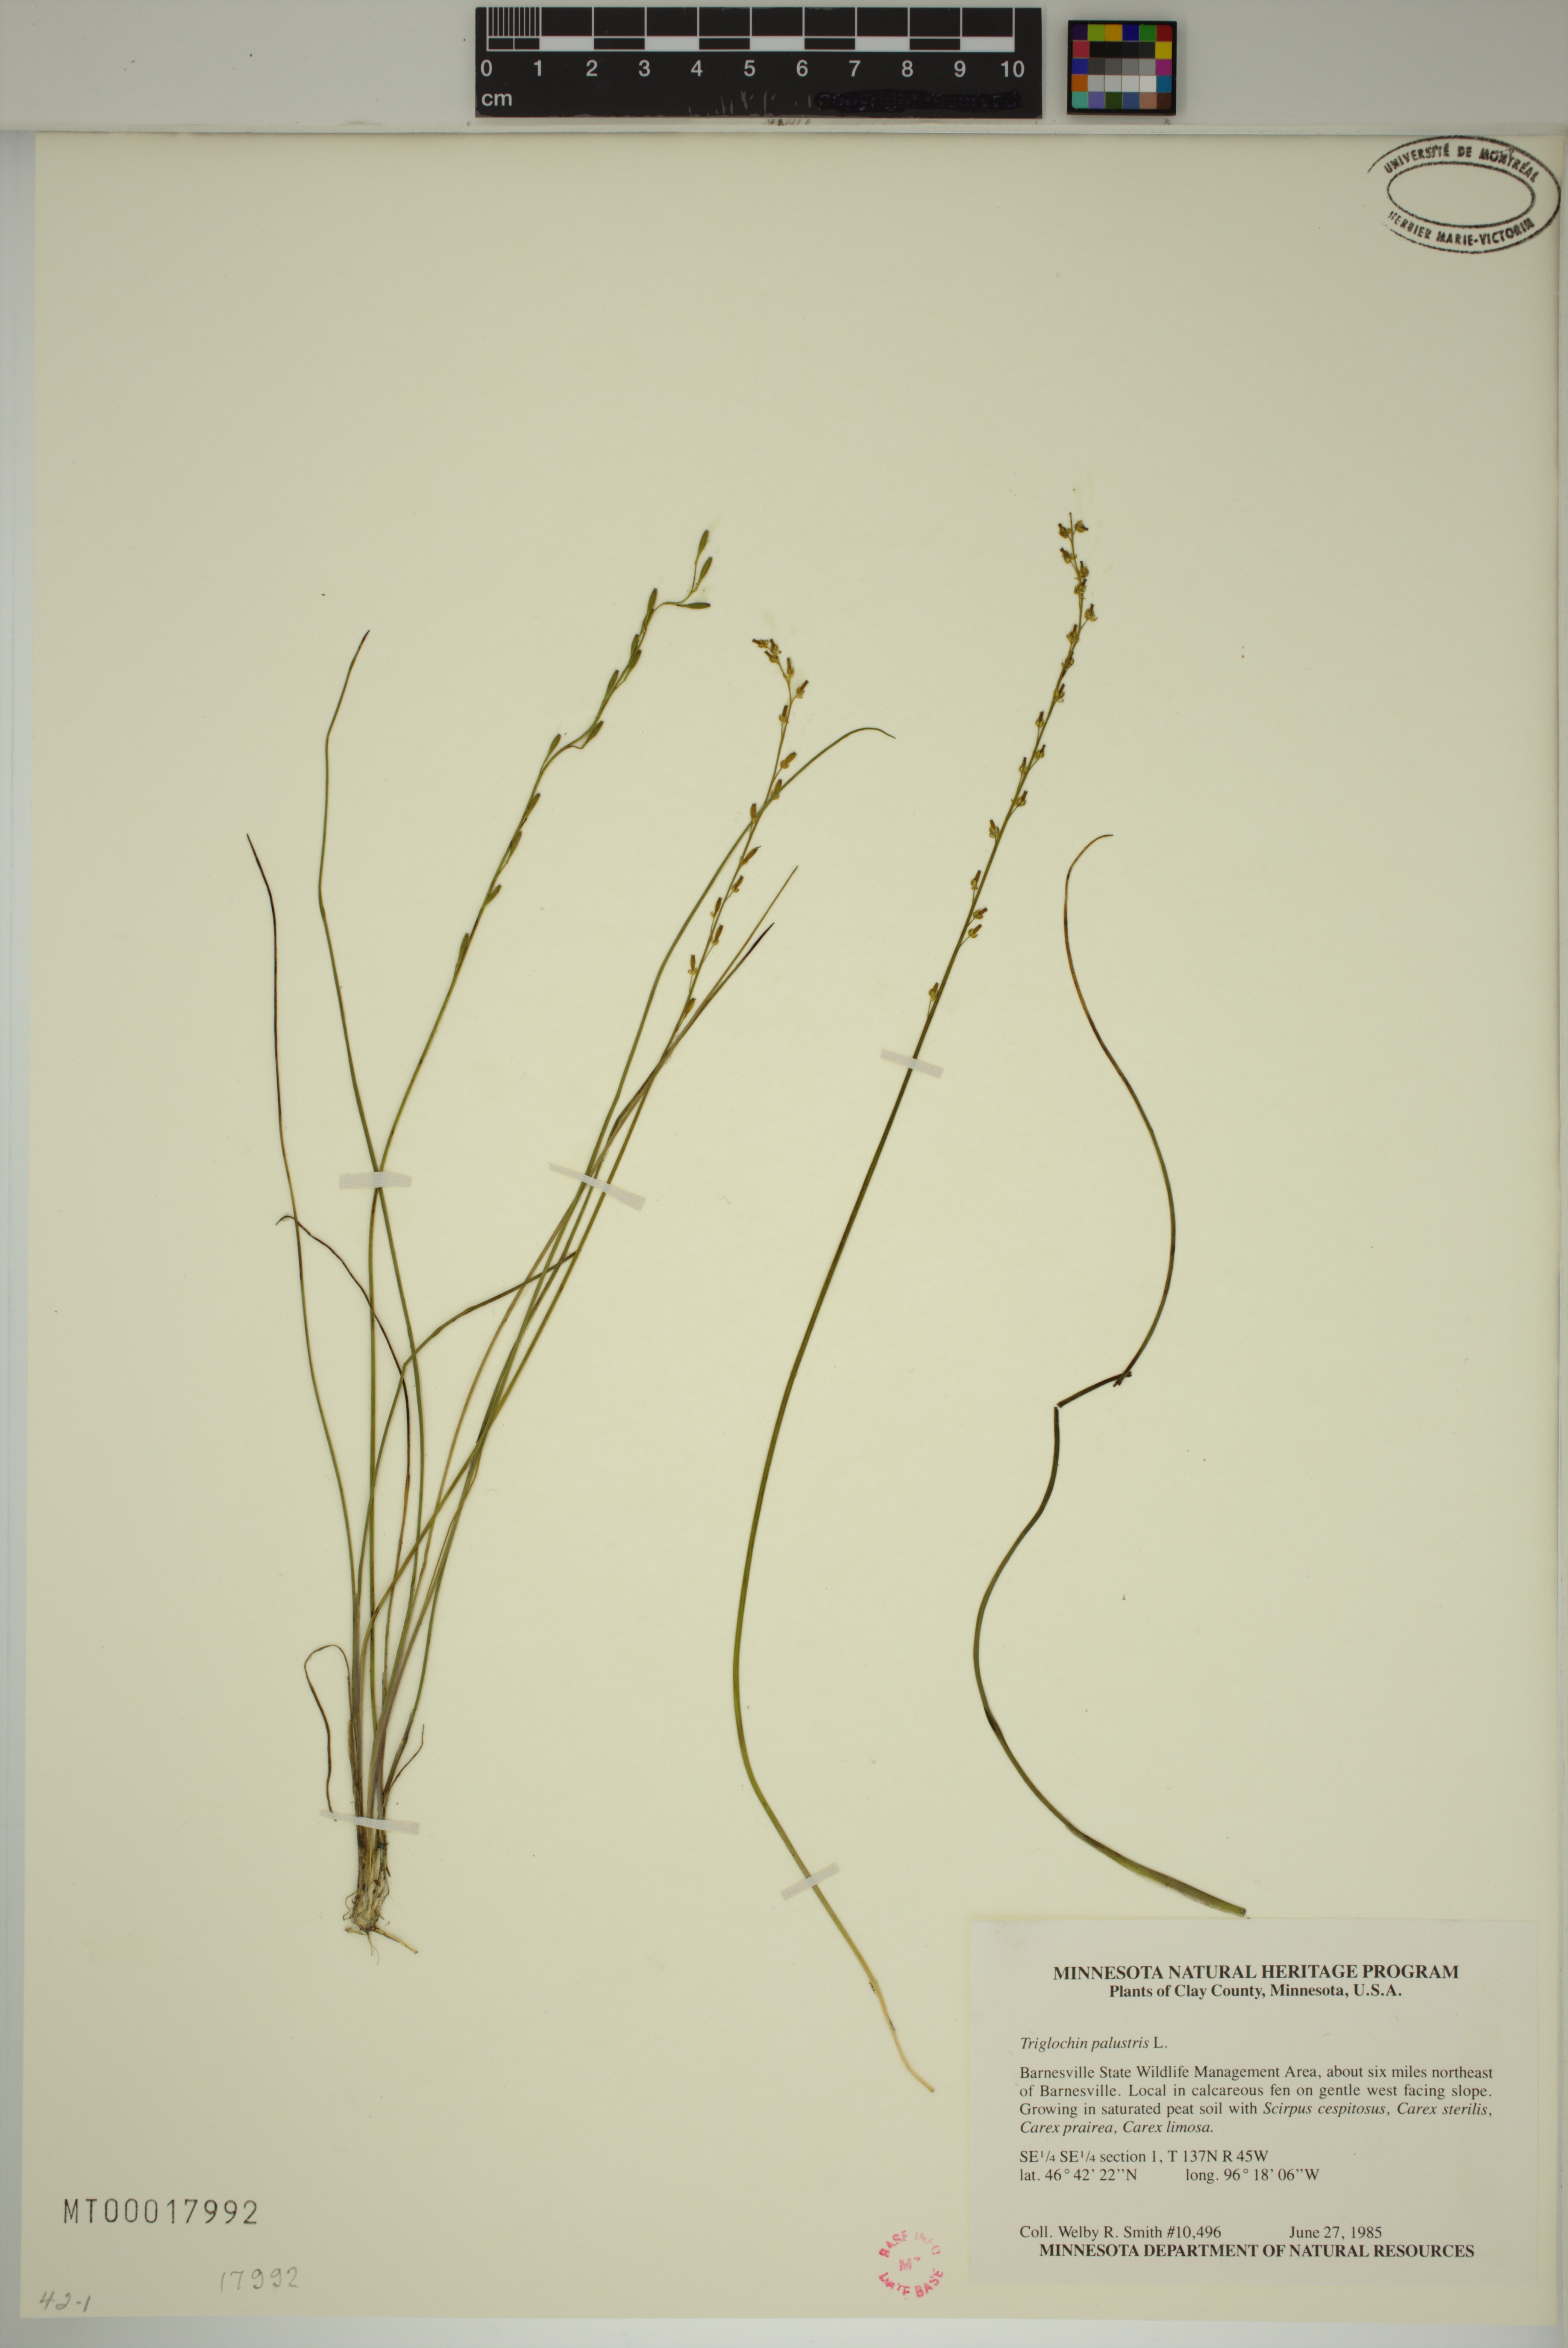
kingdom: Plantae
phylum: Tracheophyta
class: Liliopsida
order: Alismatales
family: Juncaginaceae
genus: Triglochin
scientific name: Triglochin palustris
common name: Marsh arrowgrass
